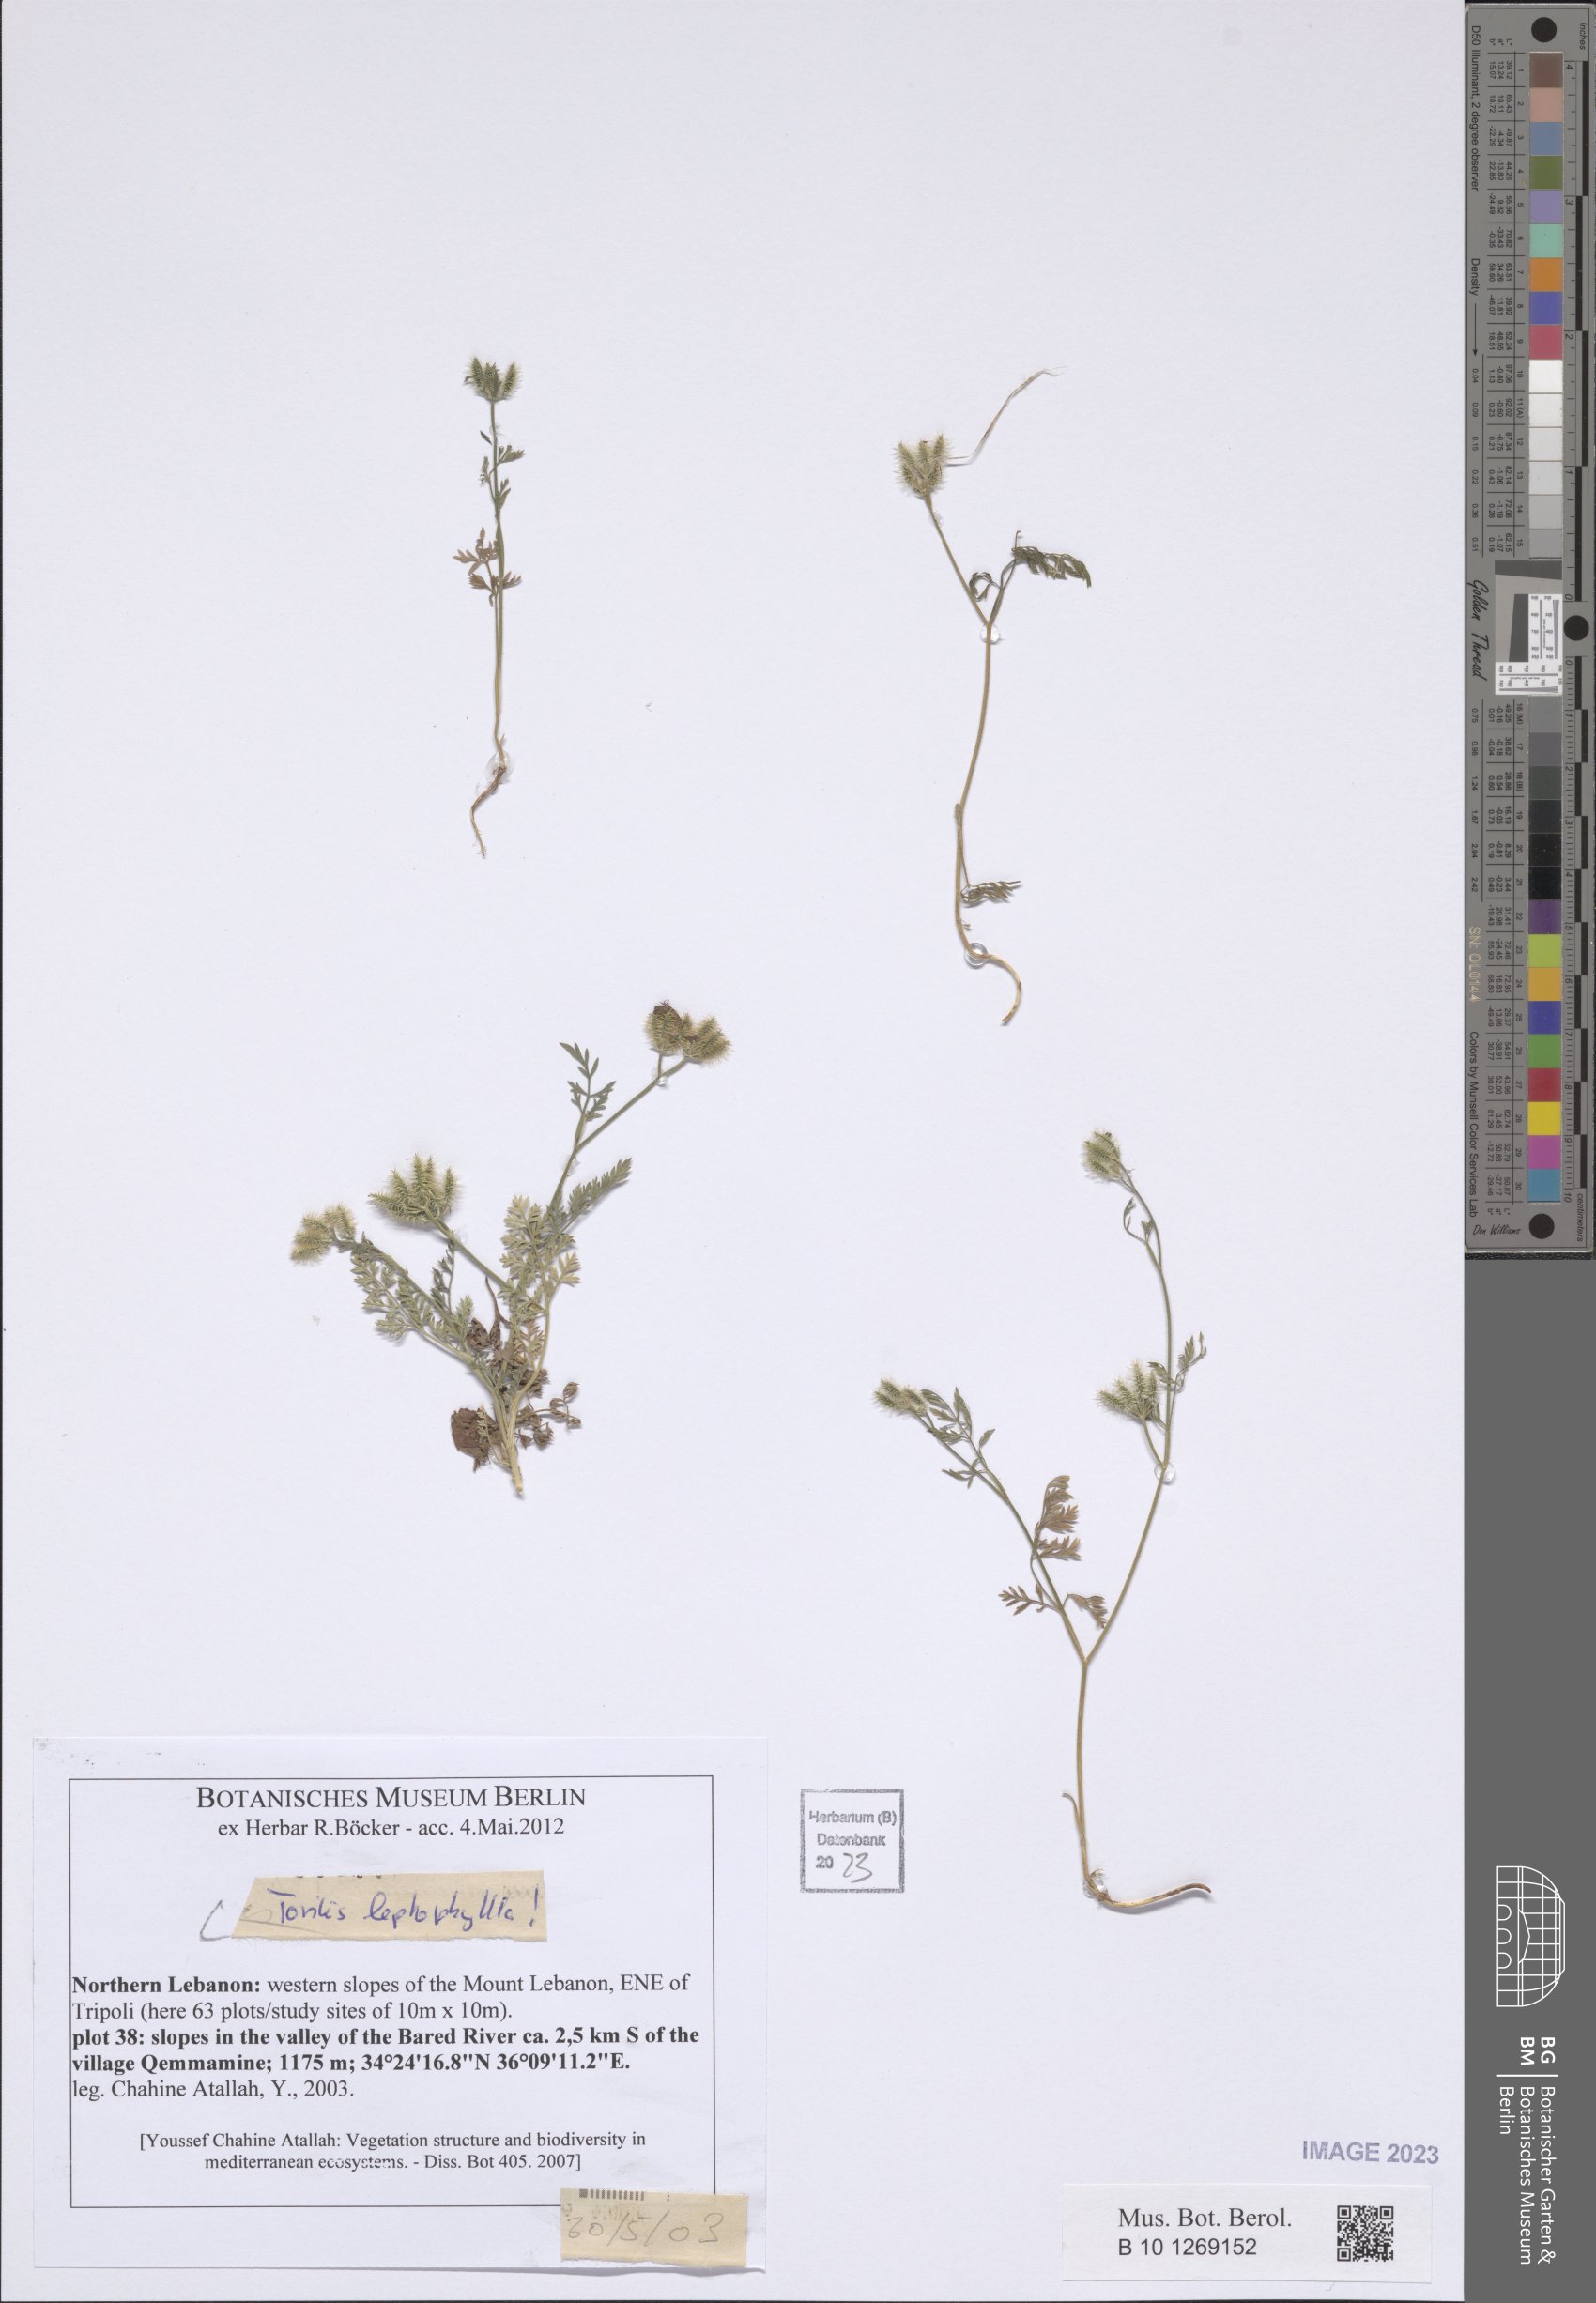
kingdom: Plantae
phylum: Tracheophyta
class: Magnoliopsida
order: Apiales
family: Apiaceae
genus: Torilis
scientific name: Torilis leptophylla
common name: Bristlefruit hedgeparsley
